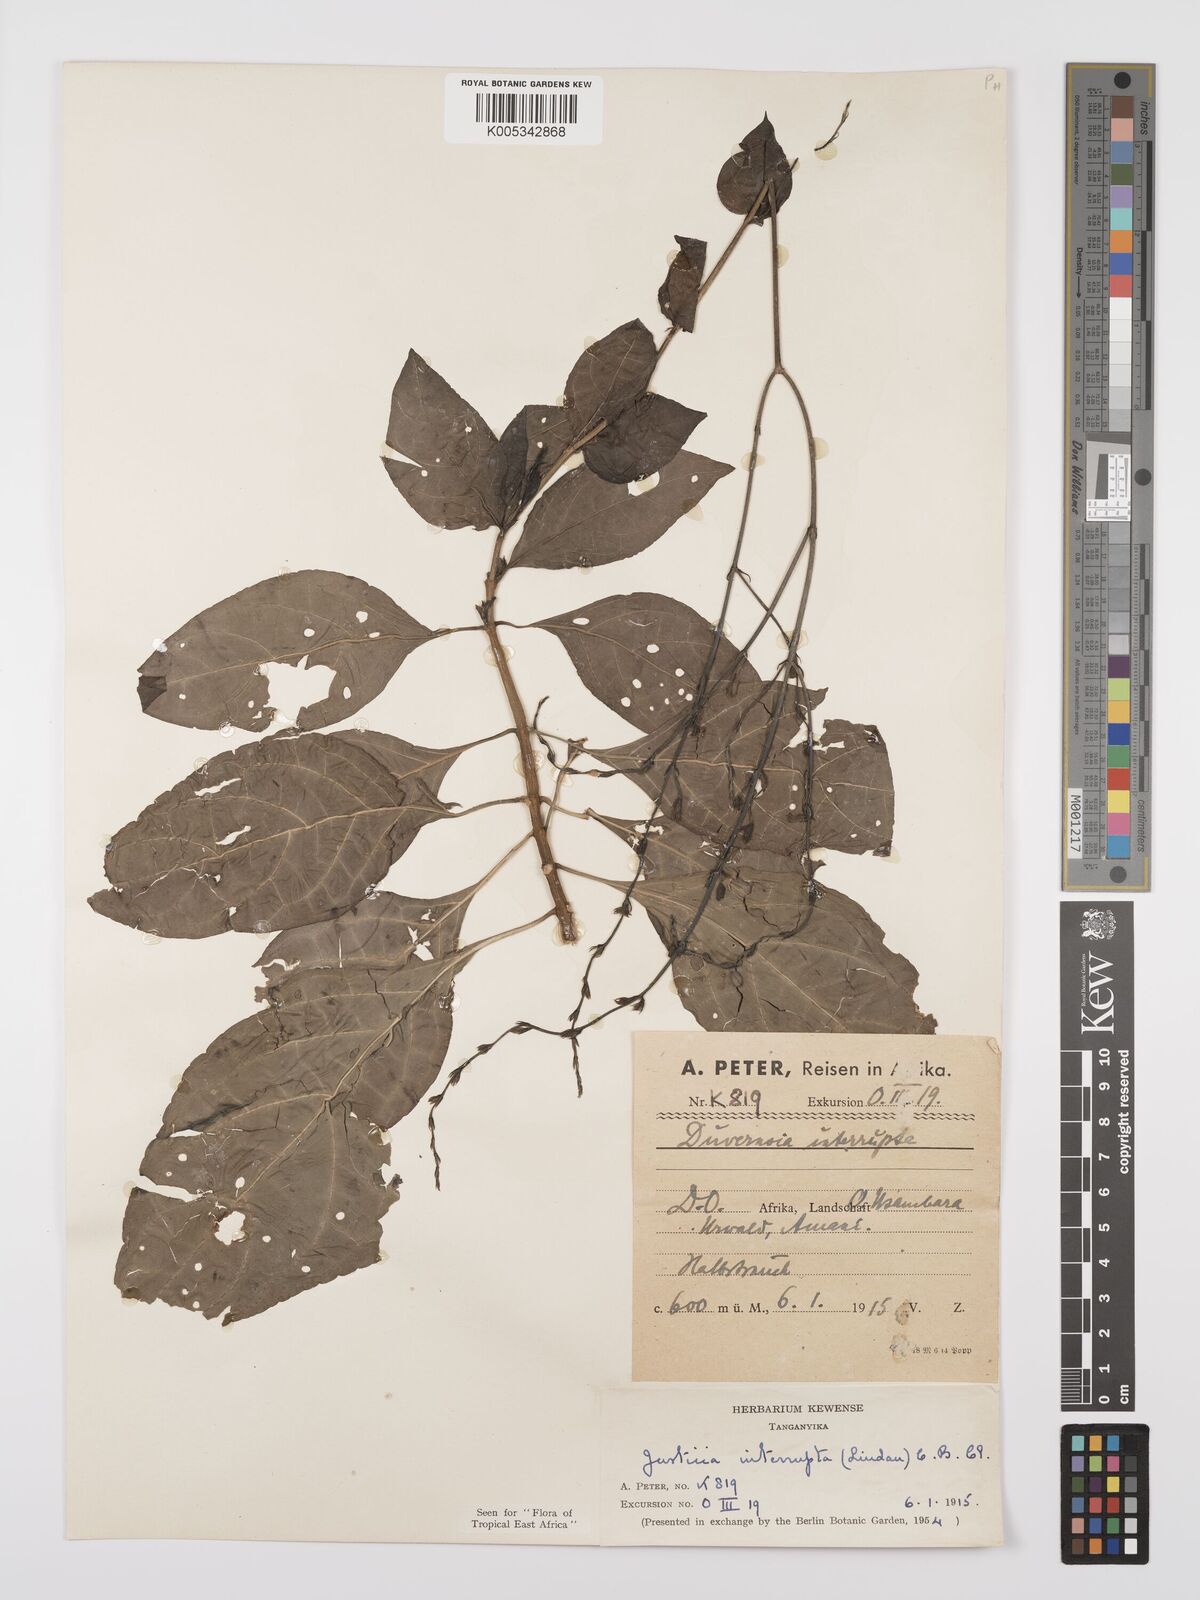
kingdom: Plantae
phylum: Tracheophyta
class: Magnoliopsida
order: Lamiales
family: Acanthaceae
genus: Justicia
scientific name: Justicia plectranthoides
